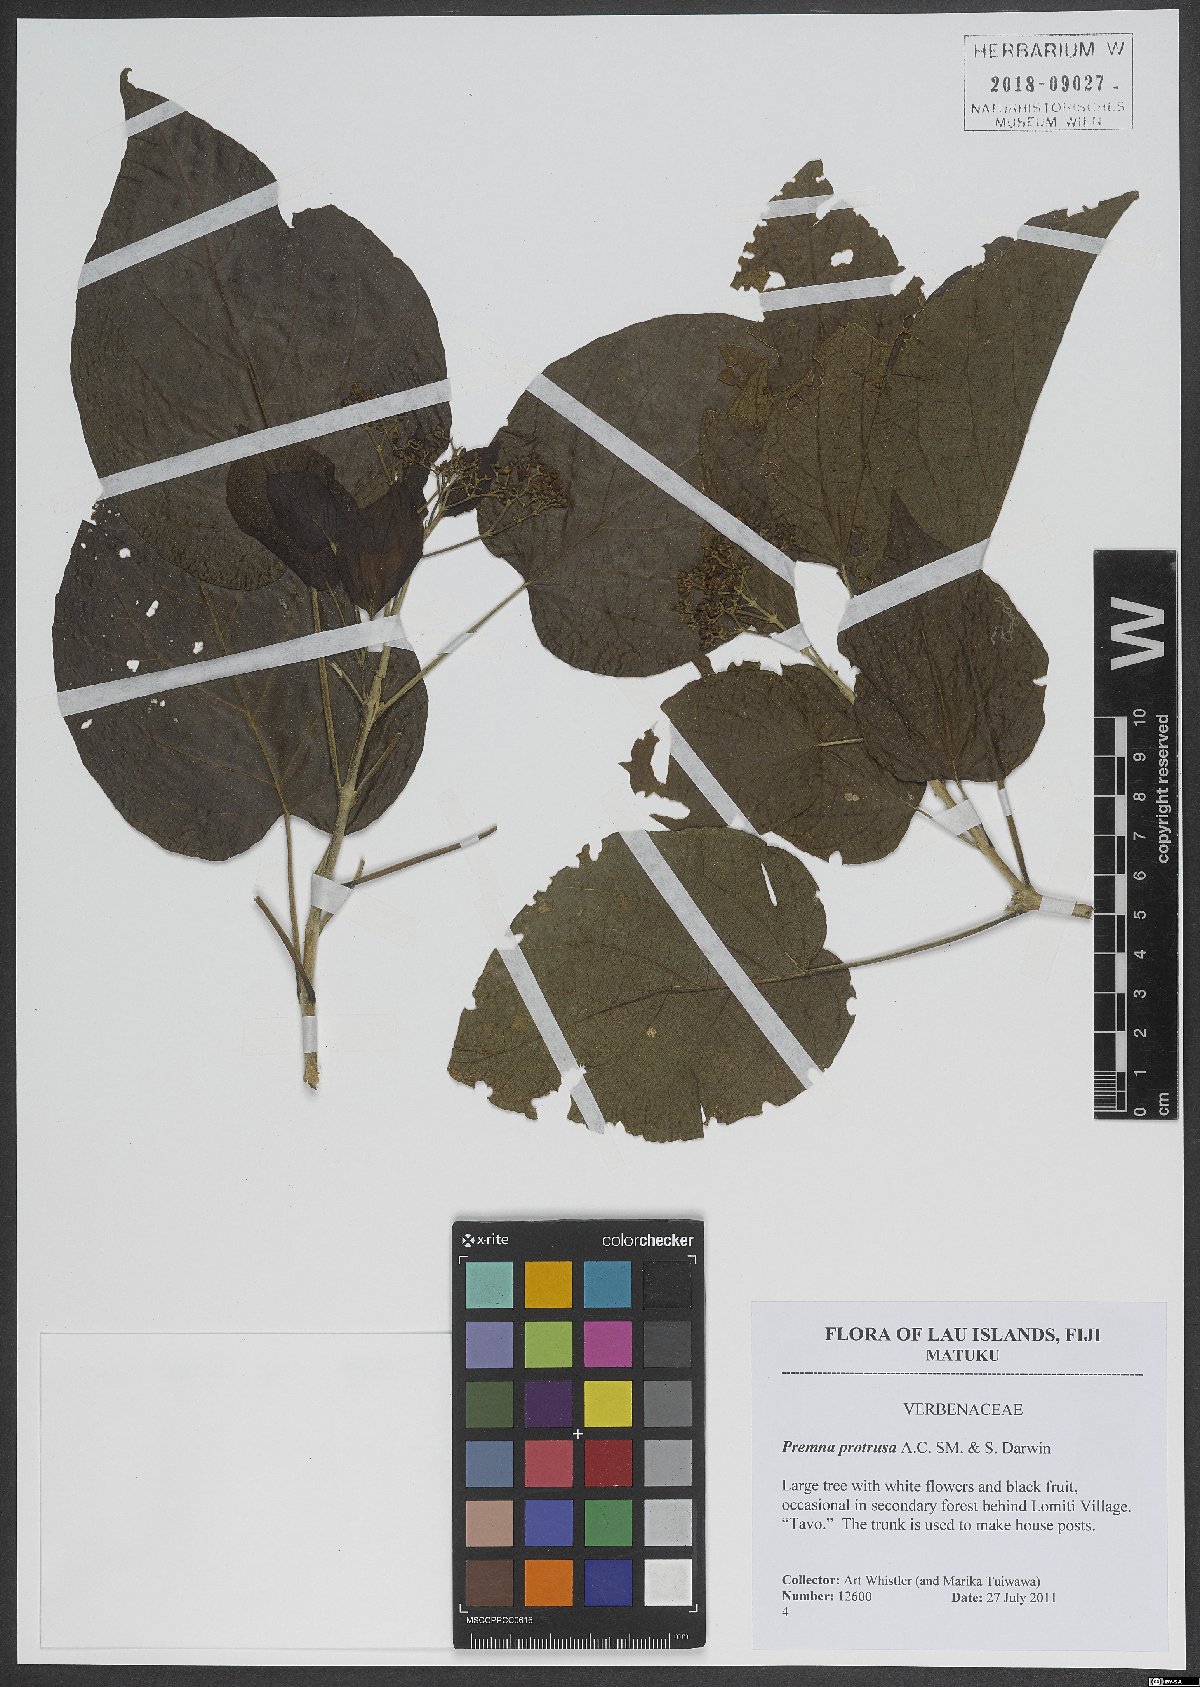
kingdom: Plantae
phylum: Tracheophyta
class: Magnoliopsida
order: Lamiales
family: Lamiaceae
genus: Premna
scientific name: Premna protrusa
